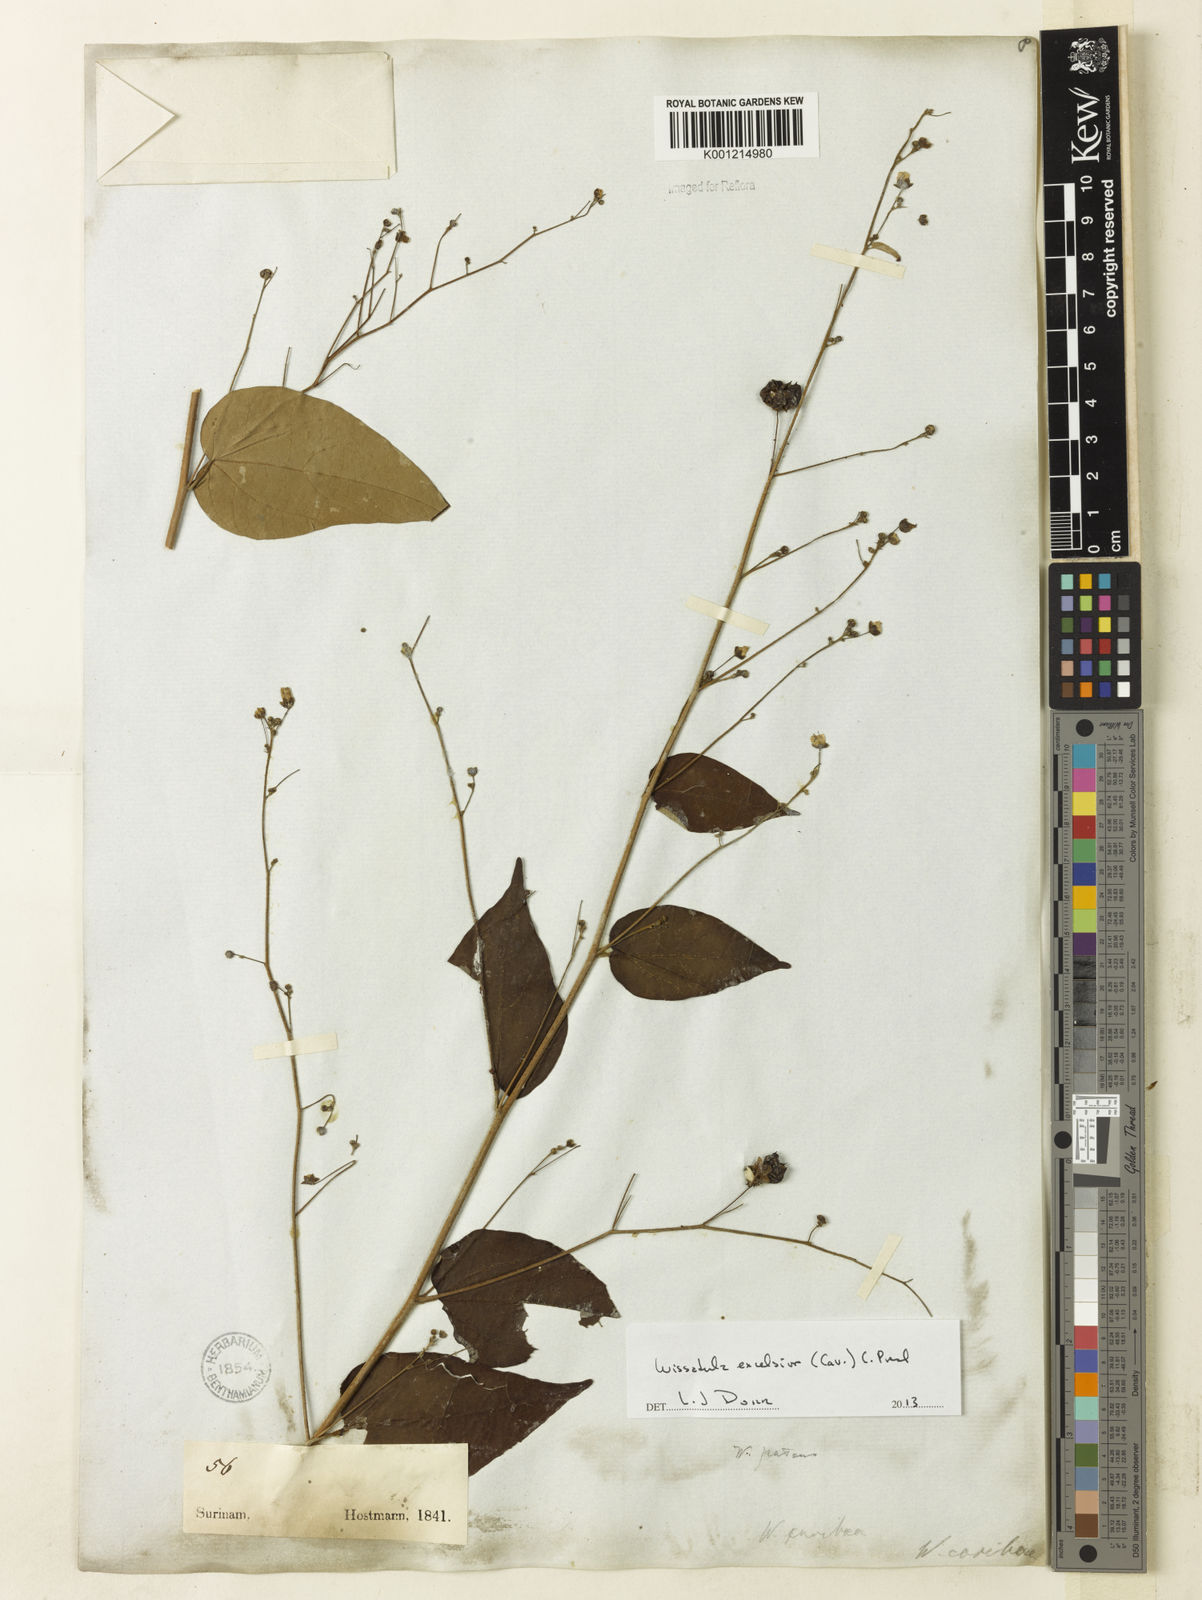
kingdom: Plantae
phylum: Tracheophyta
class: Magnoliopsida
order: Malvales
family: Malvaceae
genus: Wissadula
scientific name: Wissadula excelsior
